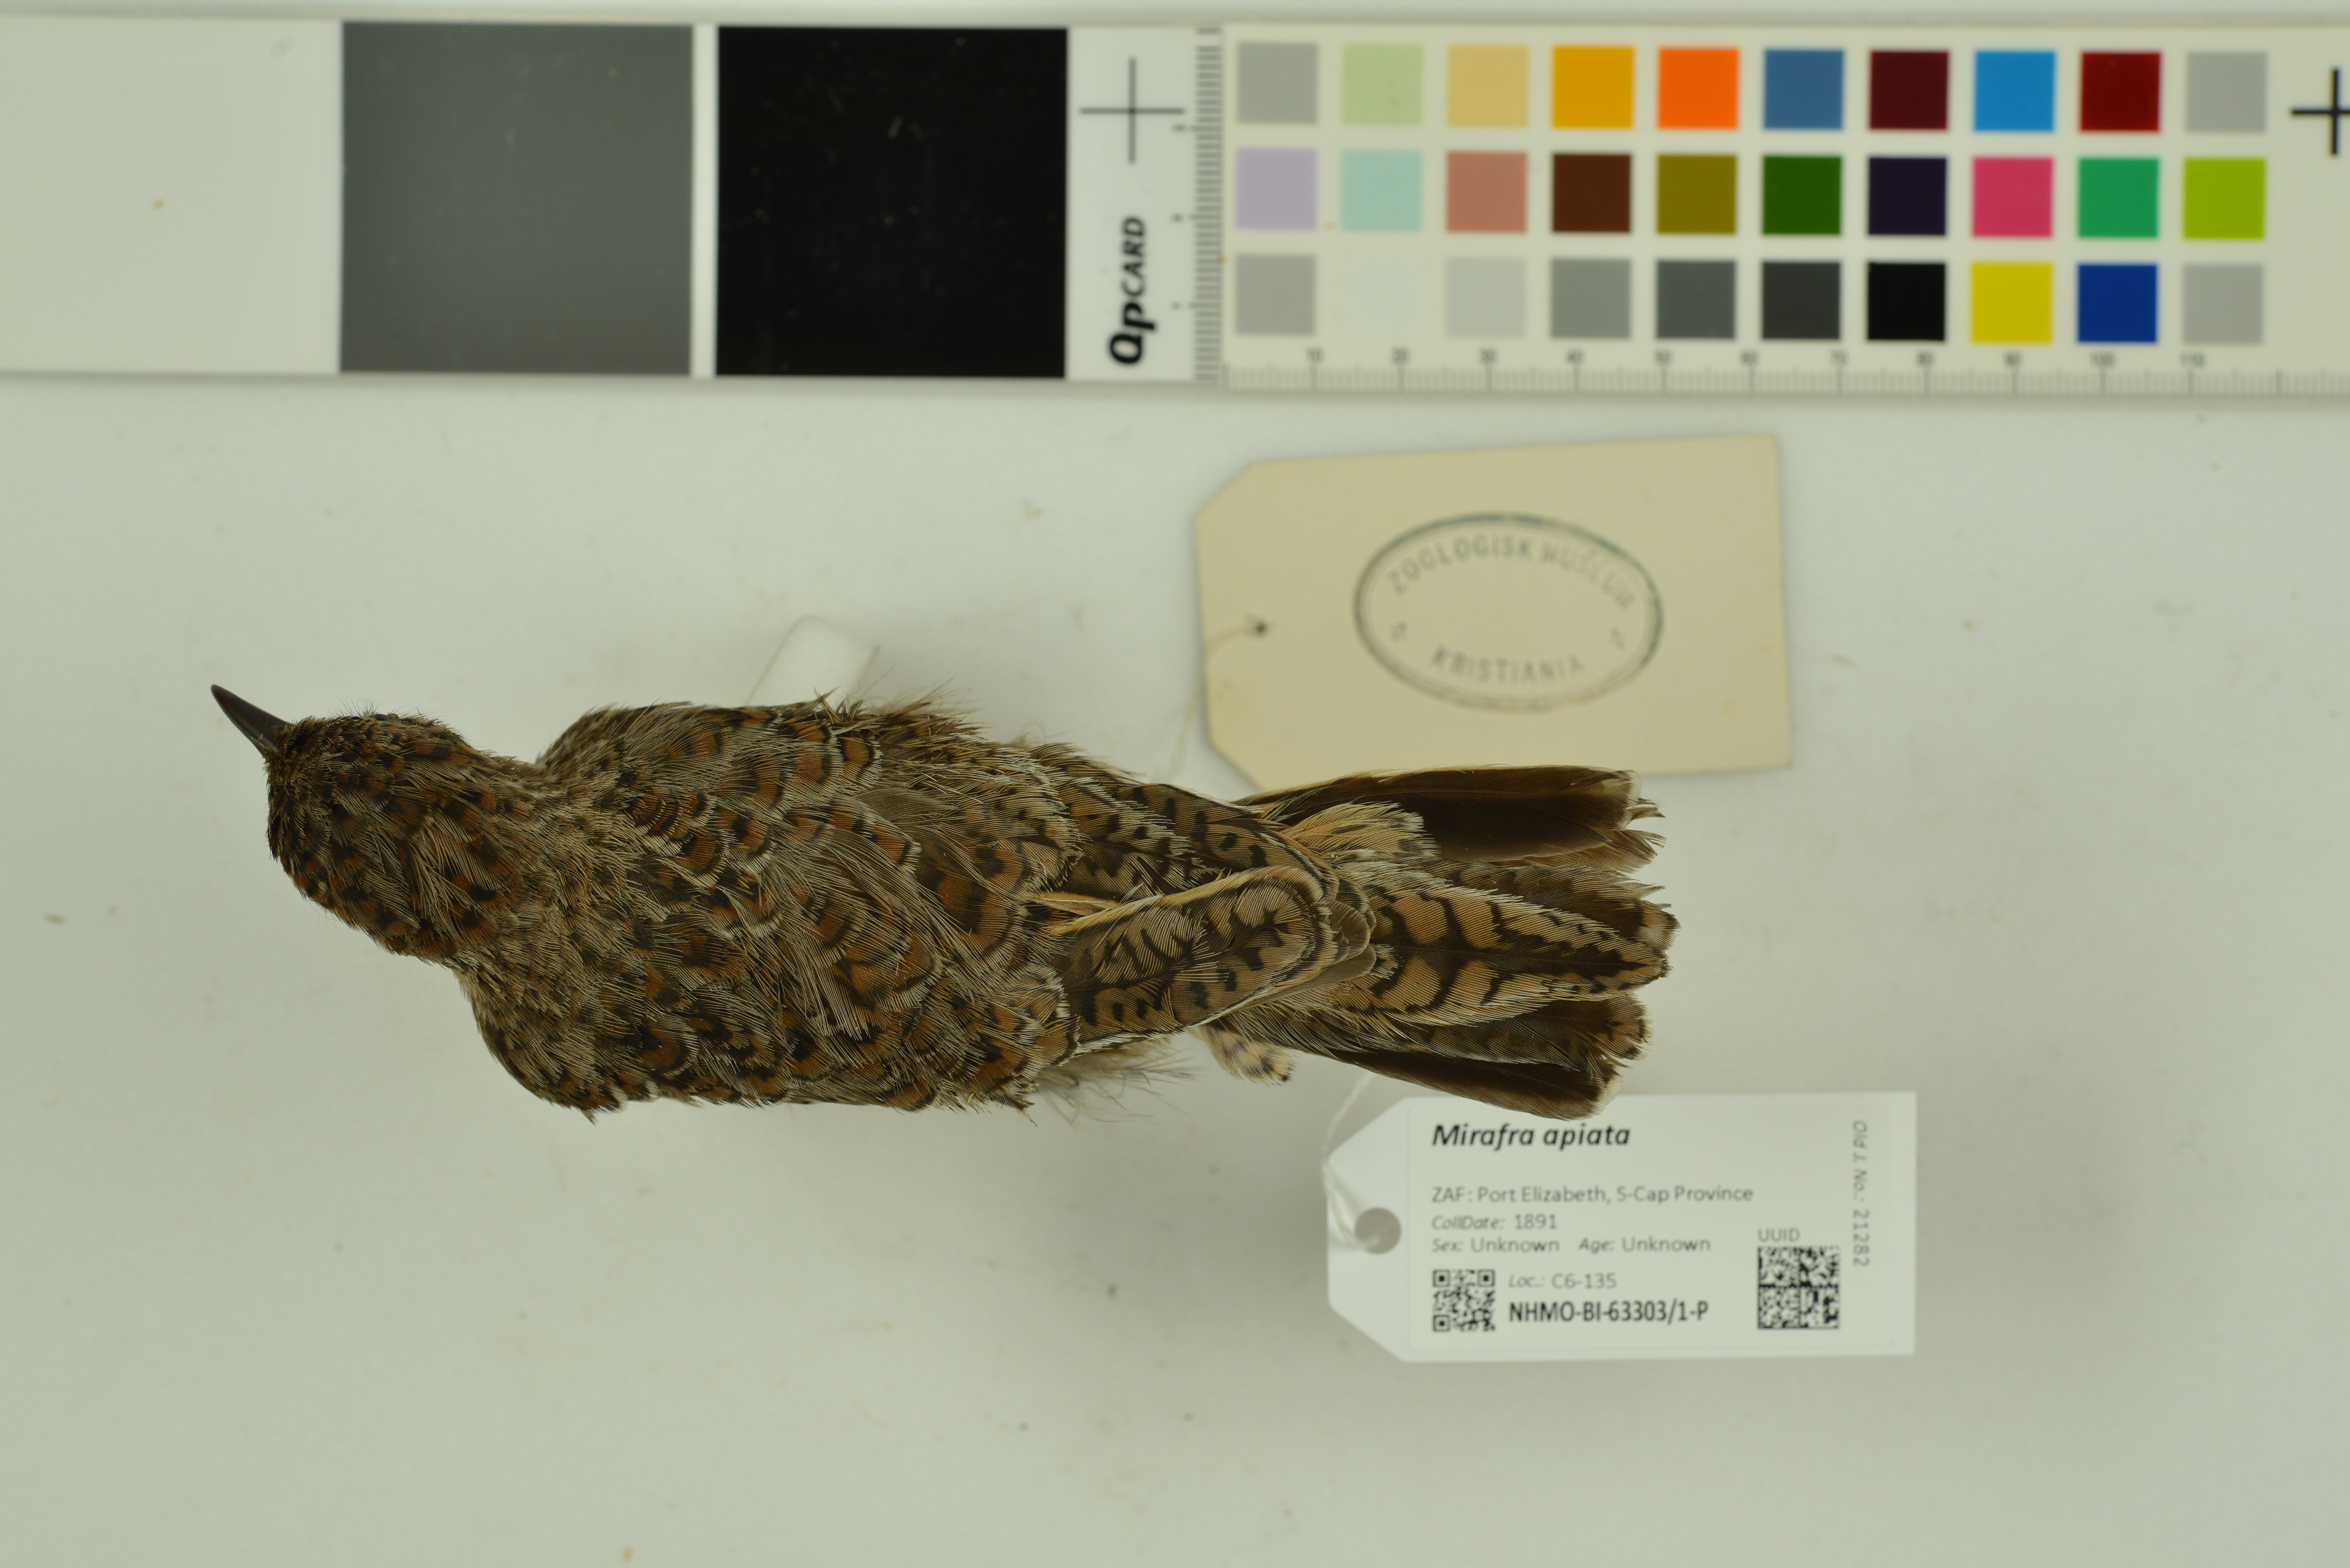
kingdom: Animalia
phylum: Chordata
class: Aves
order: Passeriformes
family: Alaudidae
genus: Mirafra
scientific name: Mirafra apiata
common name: Cape clapper lark
